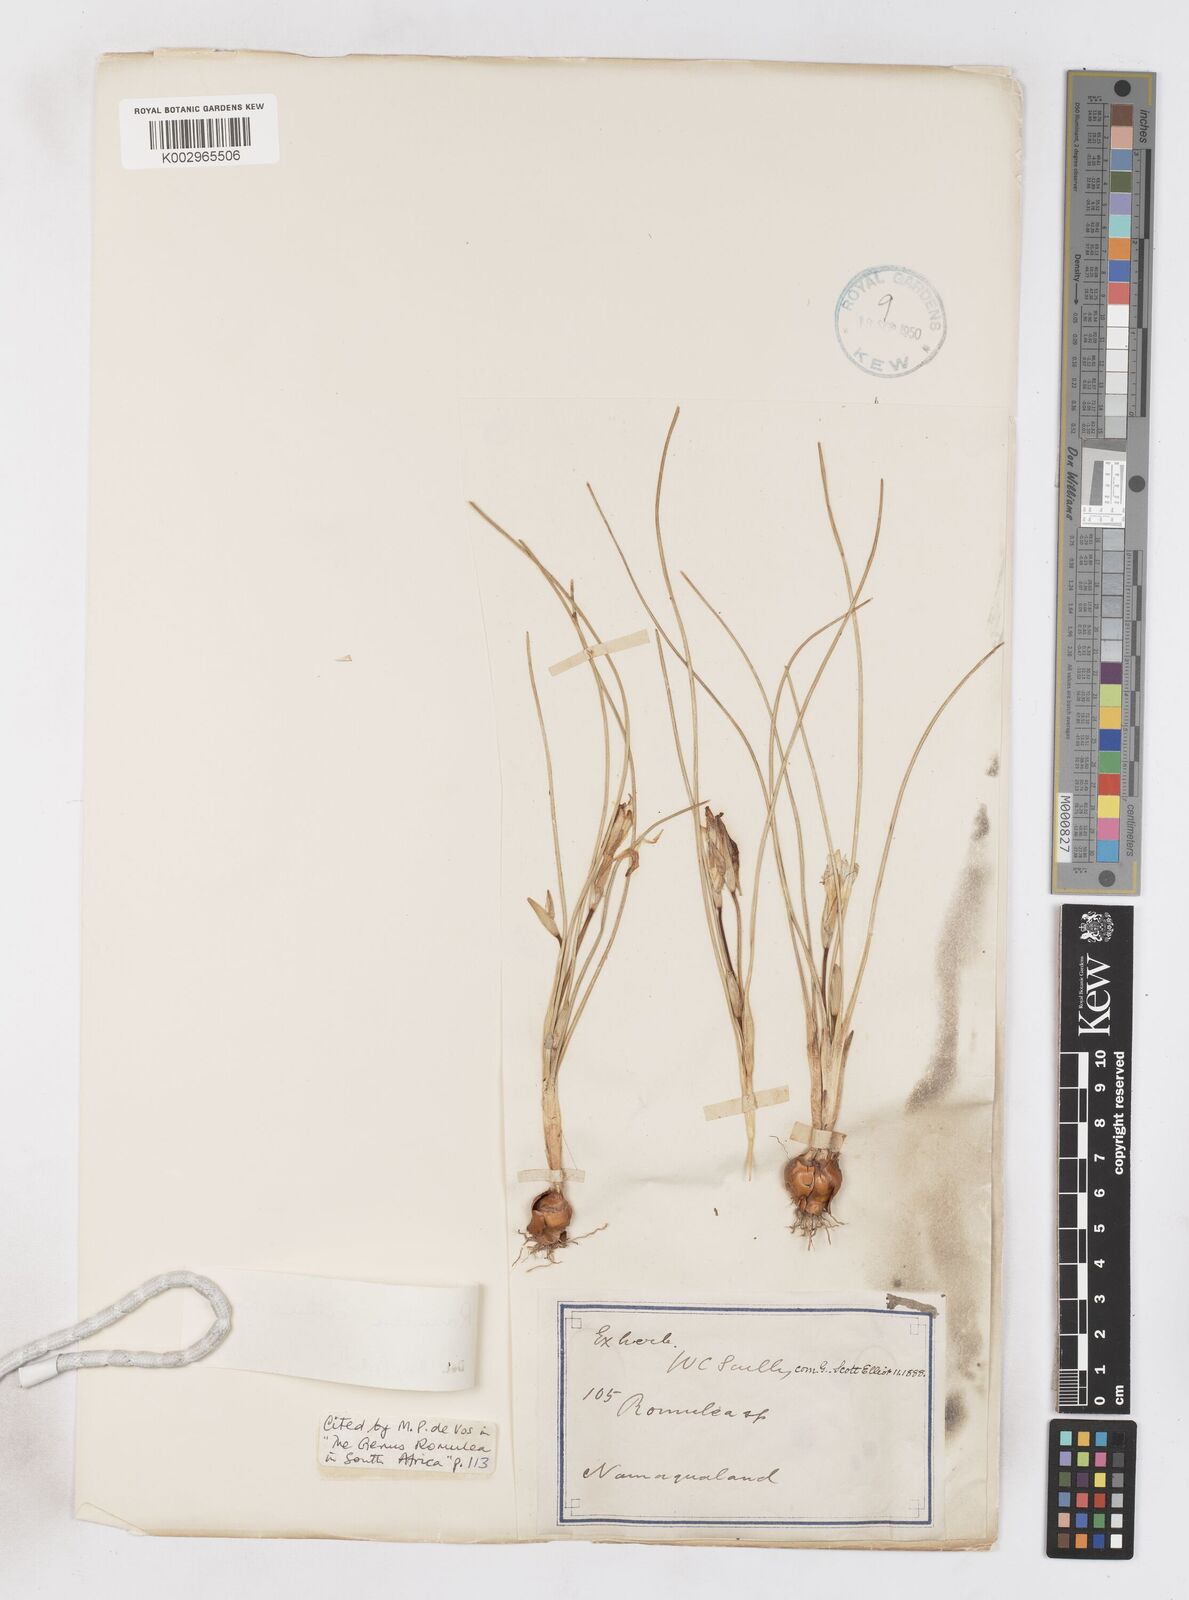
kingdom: Plantae
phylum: Tracheophyta
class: Liliopsida
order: Asparagales
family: Iridaceae
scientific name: Iridaceae
